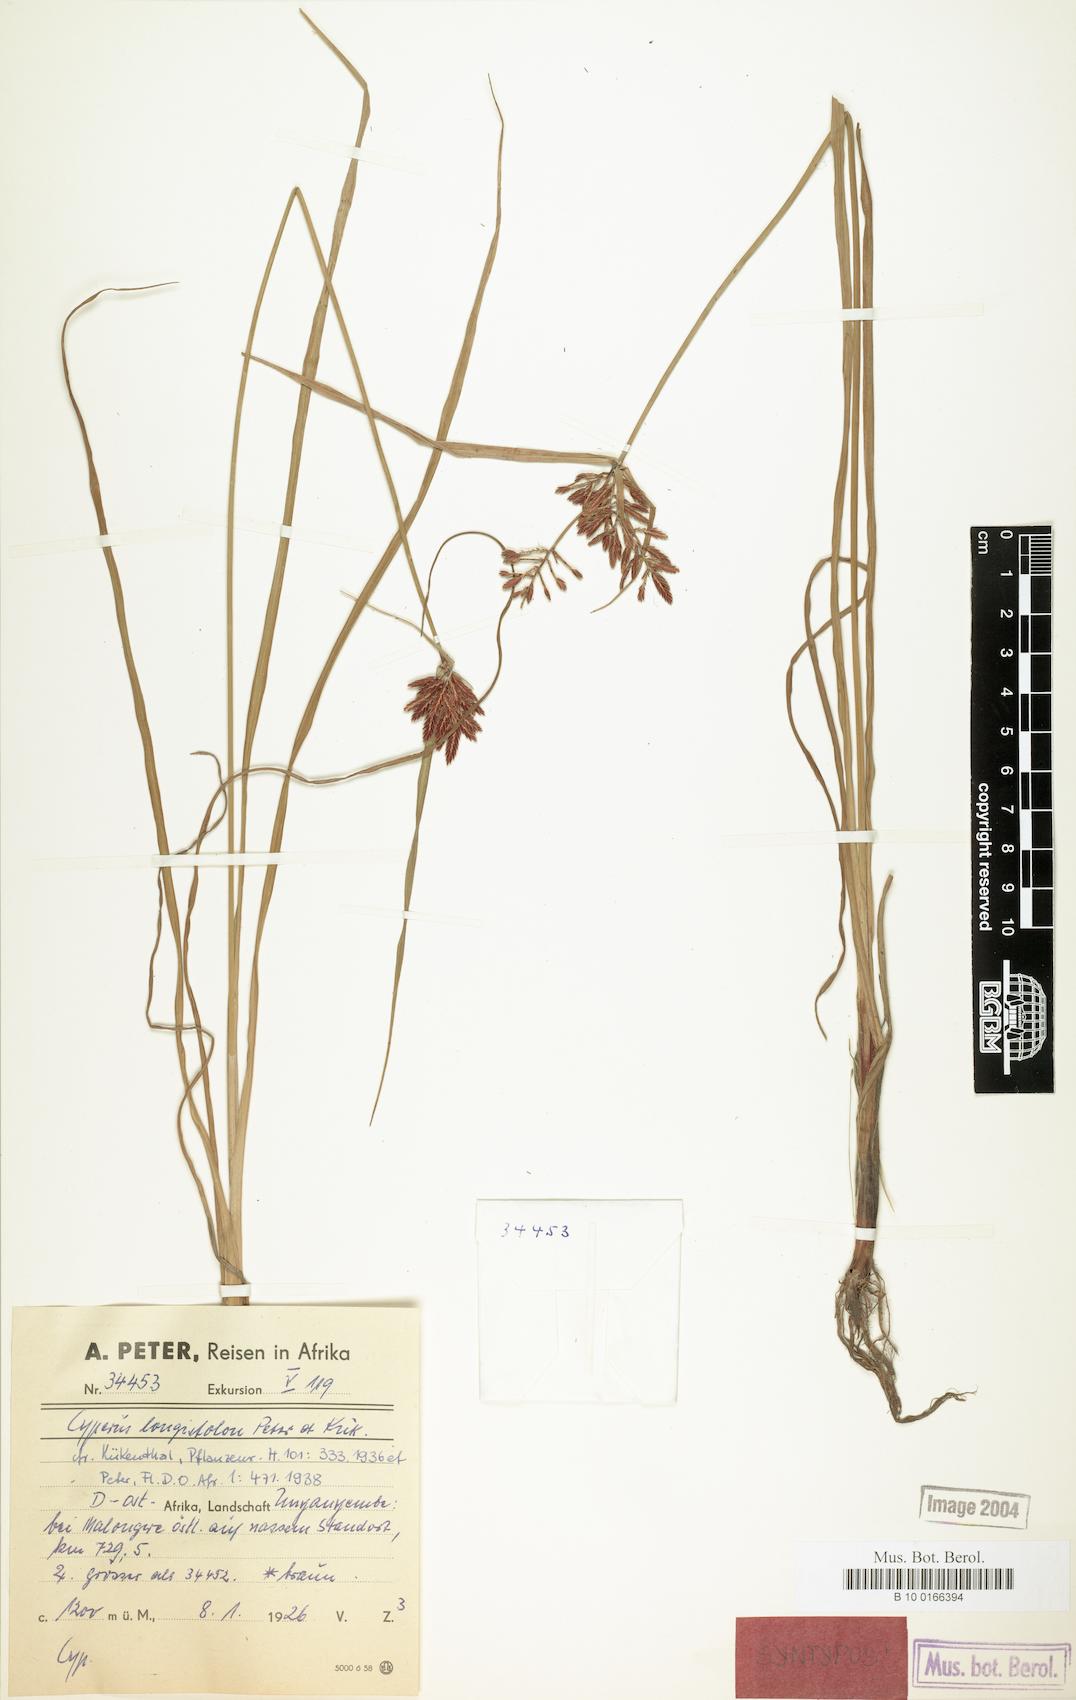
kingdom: Plantae
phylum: Tracheophyta
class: Liliopsida
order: Poales
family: Cyperaceae
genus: Cyperus
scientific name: Cyperus chrysanthus
